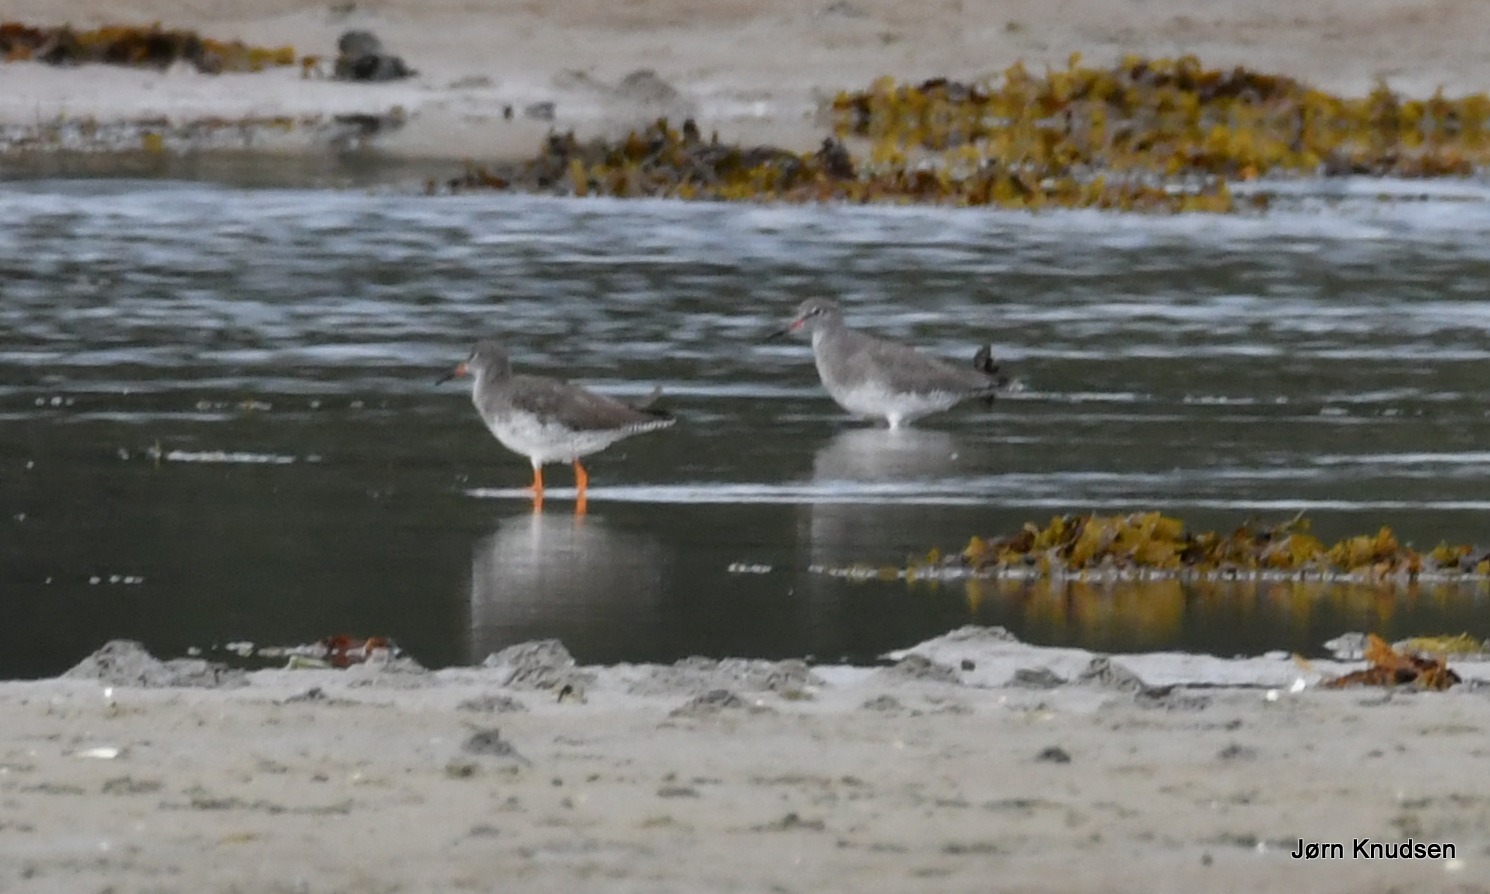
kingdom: Animalia
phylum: Chordata
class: Aves
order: Charadriiformes
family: Scolopacidae
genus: Tringa
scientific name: Tringa totanus
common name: Rødben
